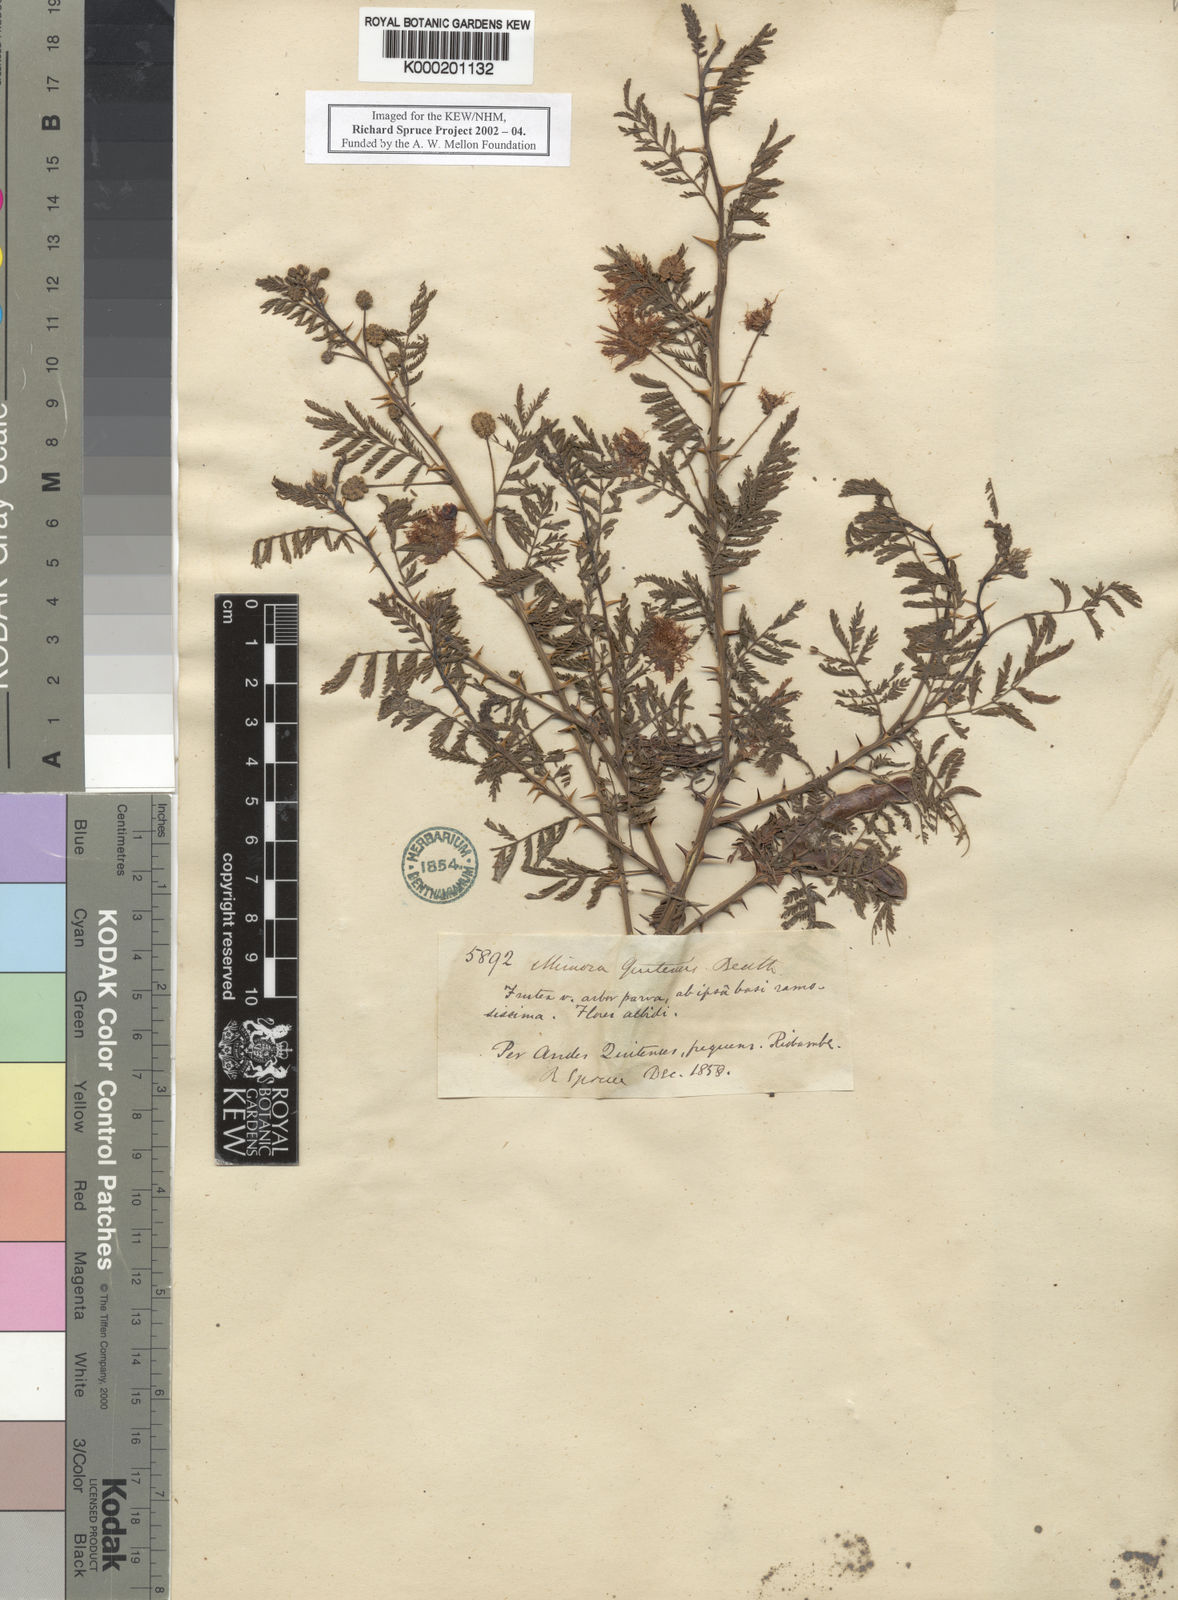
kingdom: Plantae
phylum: Tracheophyta
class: Magnoliopsida
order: Fabales
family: Fabaceae
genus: Mimosa
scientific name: Mimosa quitensis
